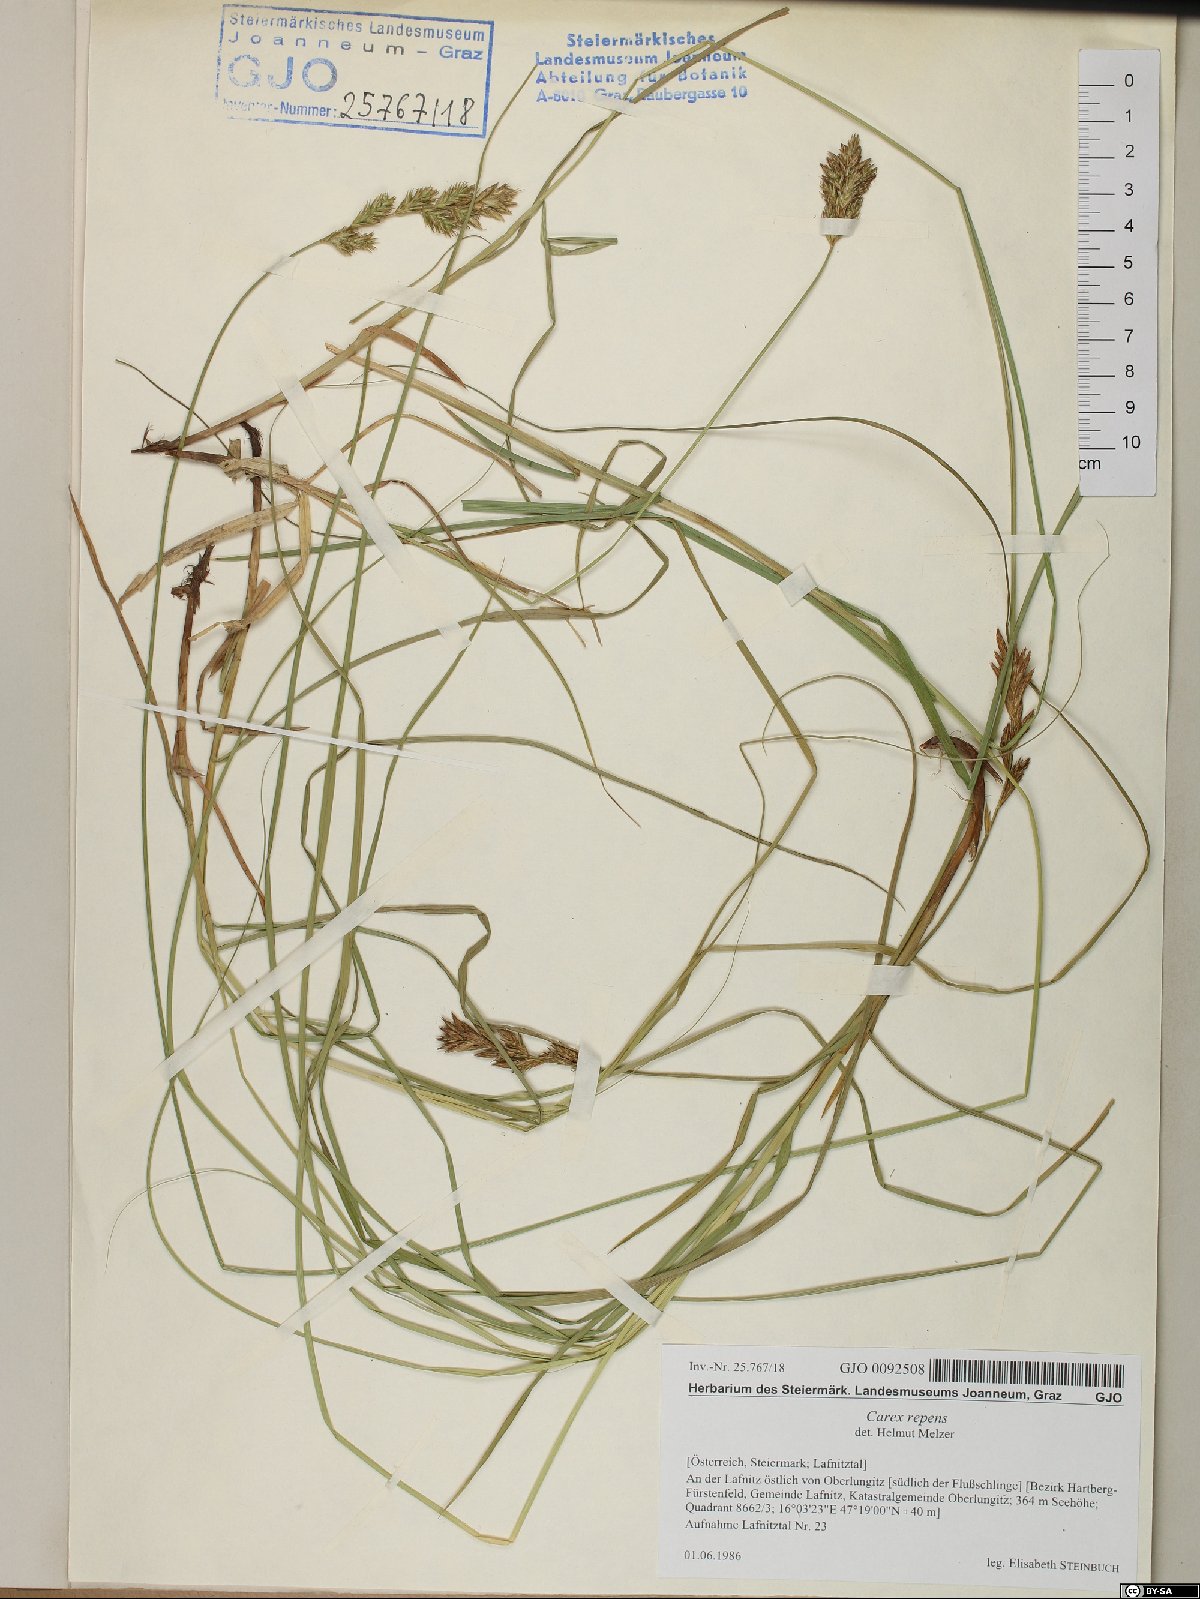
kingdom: Plantae
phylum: Tracheophyta
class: Liliopsida
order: Poales
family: Cyperaceae
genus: Carex
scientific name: Carex repens
